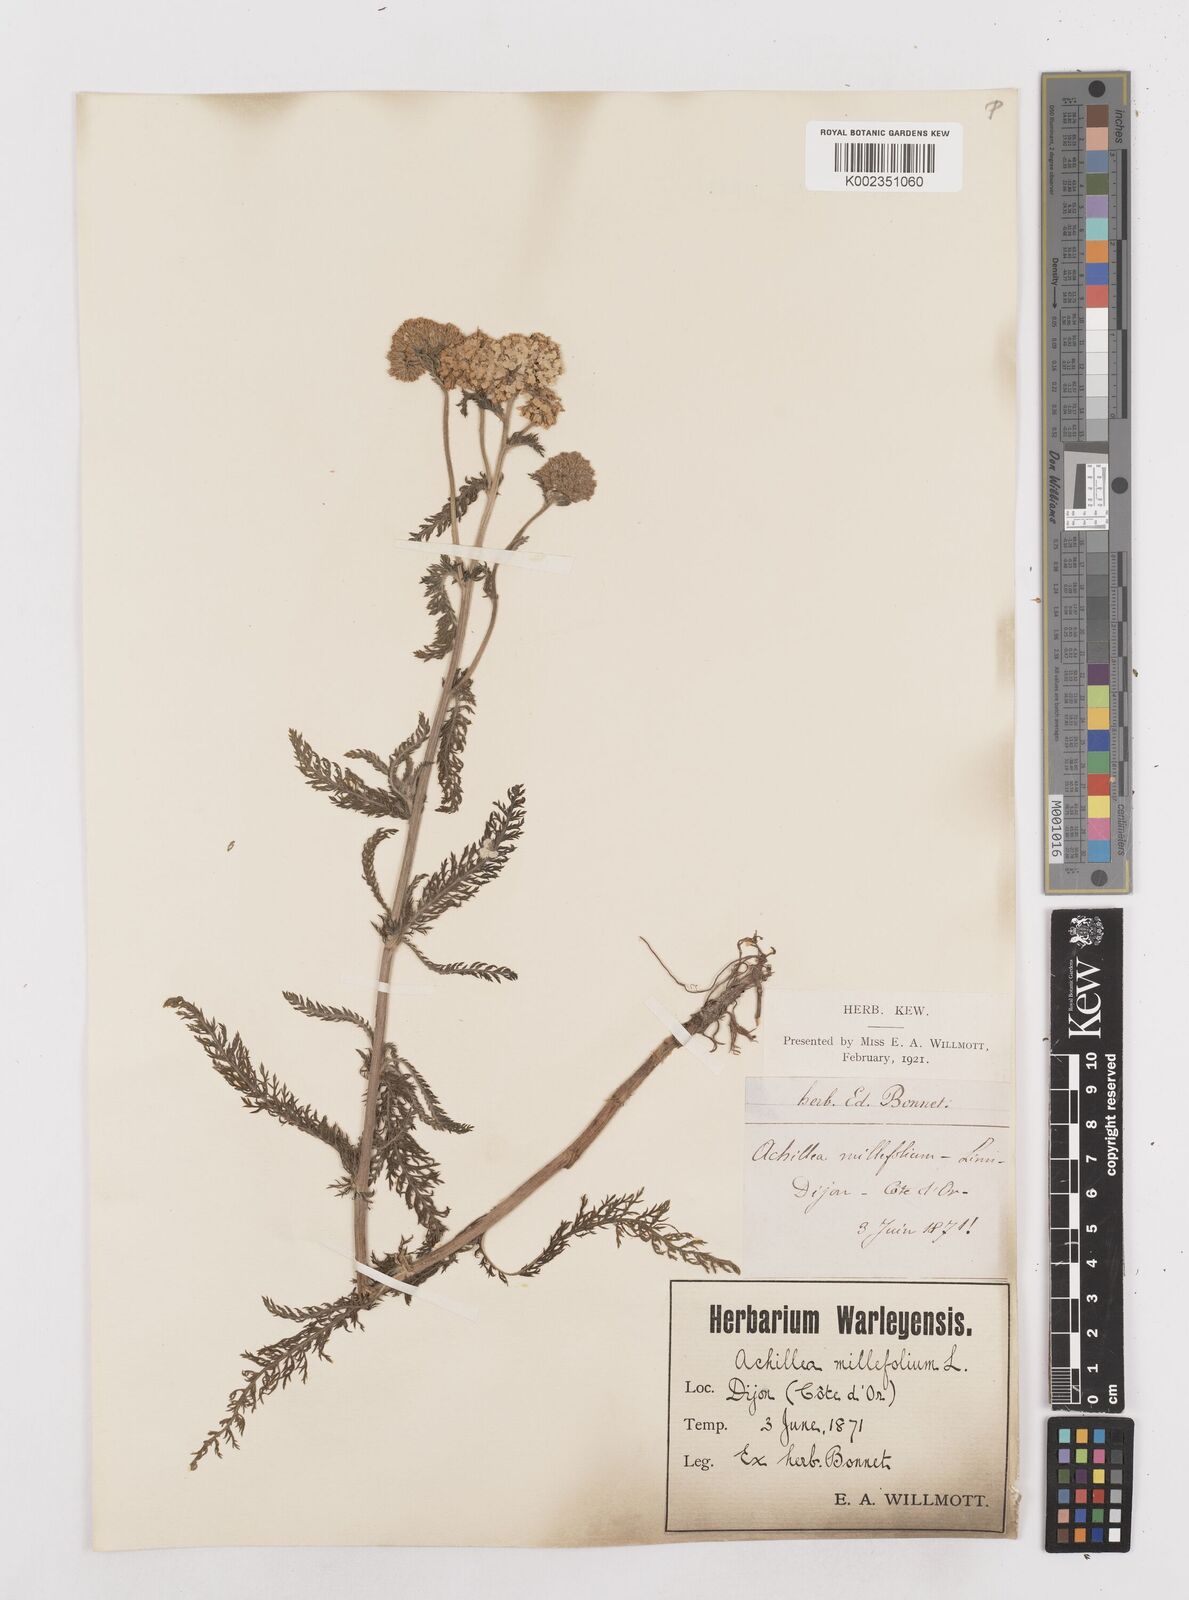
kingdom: Plantae
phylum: Tracheophyta
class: Magnoliopsida
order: Asterales
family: Asteraceae
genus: Achillea
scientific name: Achillea millefolium
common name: Yarrow
